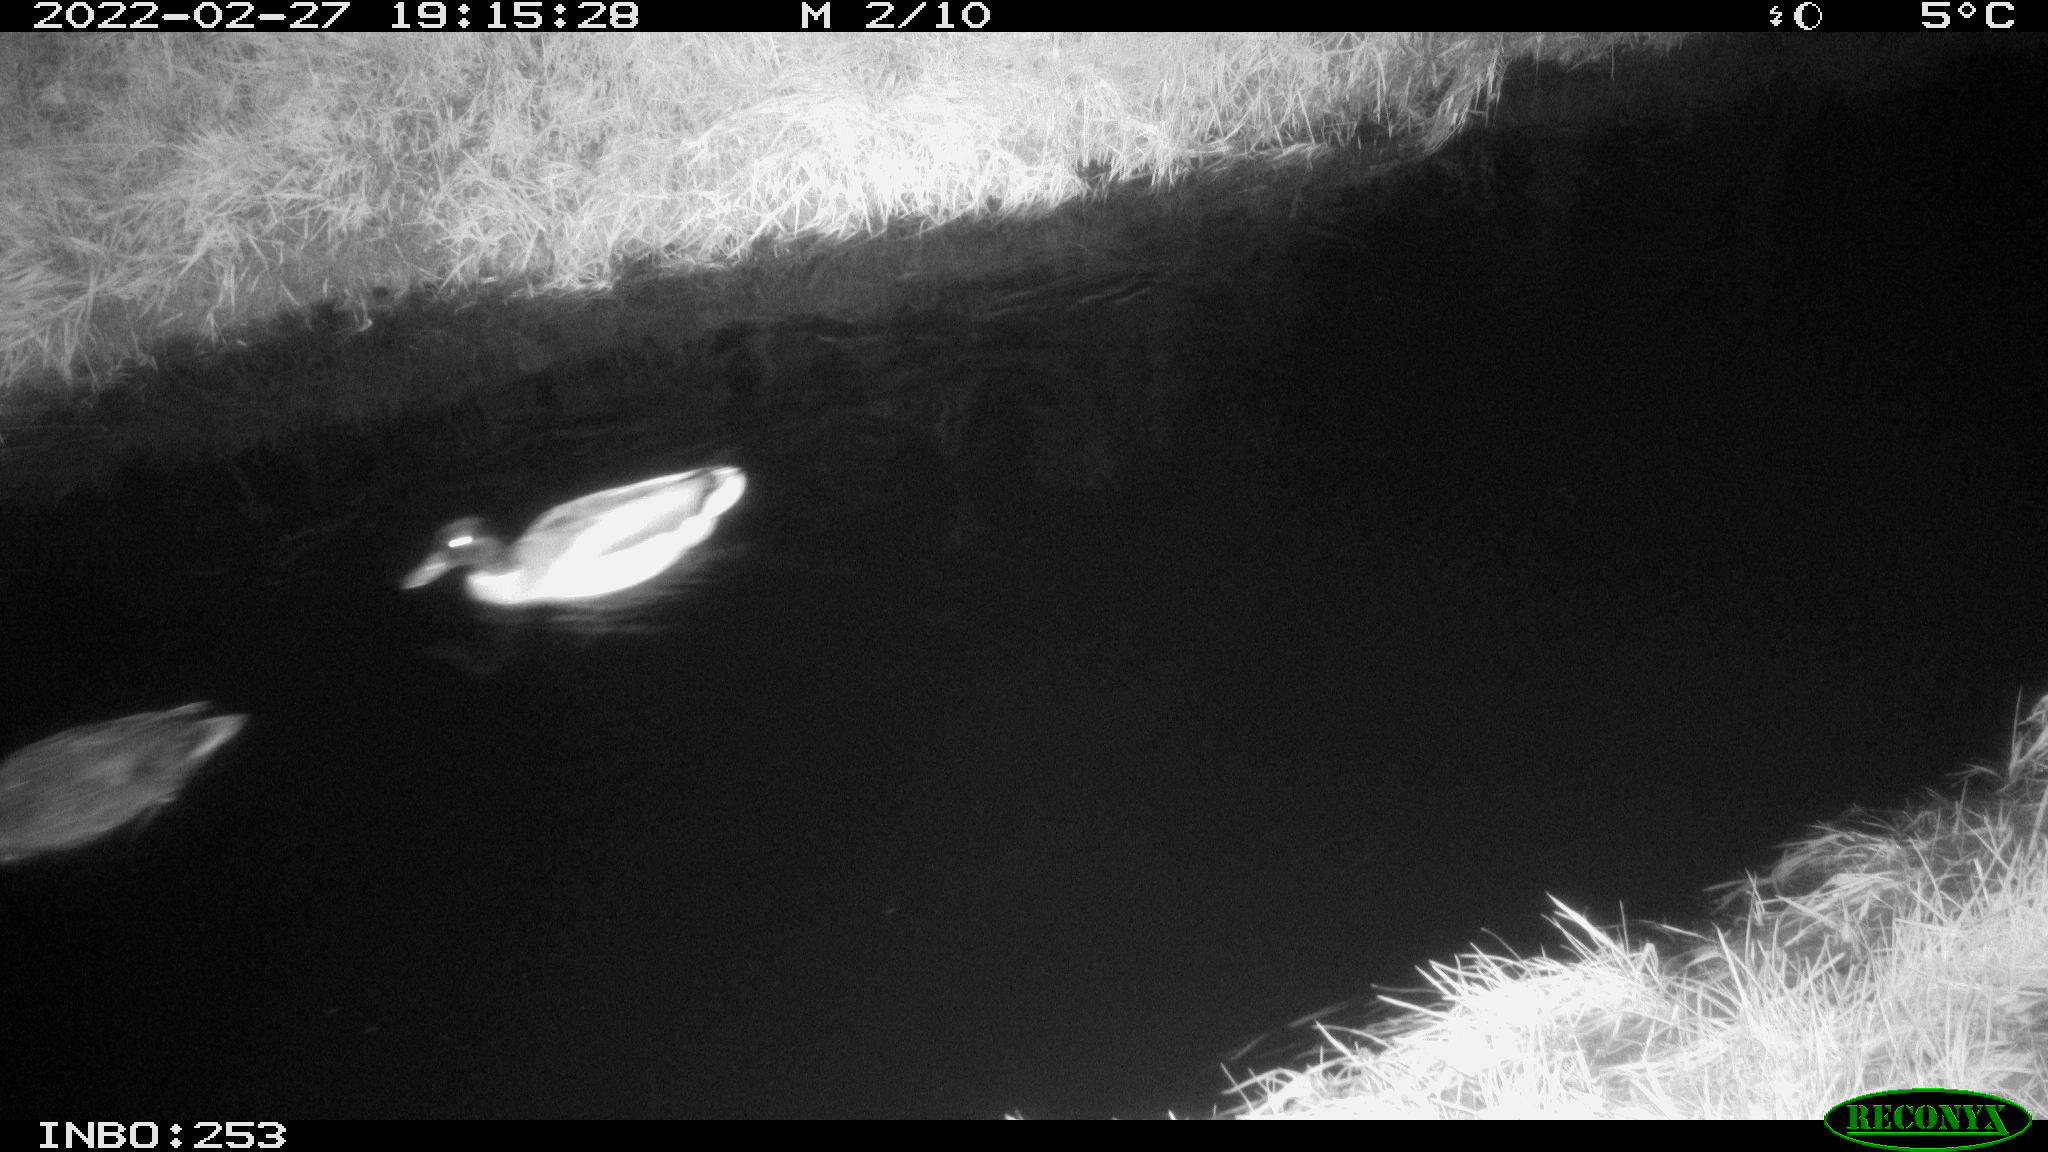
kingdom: Animalia
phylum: Chordata
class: Aves
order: Anseriformes
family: Anatidae
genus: Anas
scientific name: Anas platyrhynchos
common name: Mallard
